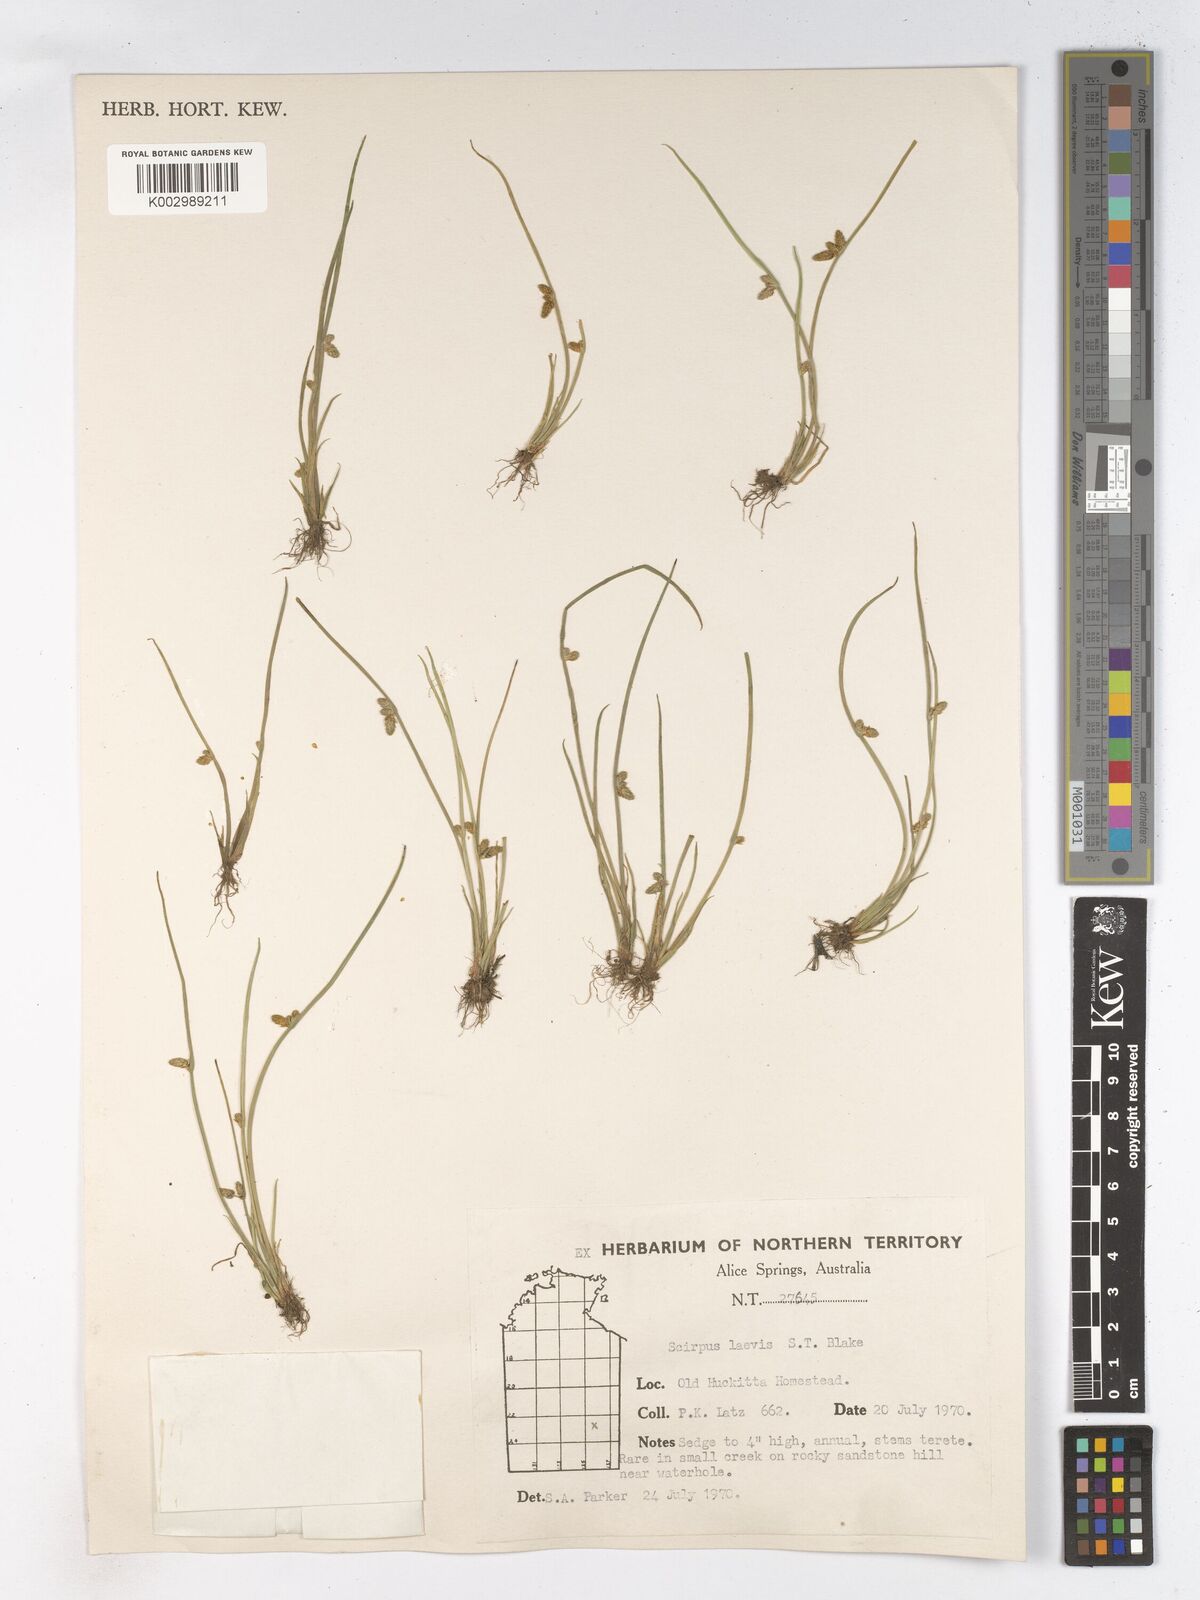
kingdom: Plantae
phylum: Tracheophyta
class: Liliopsida
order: Poales
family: Cyperaceae
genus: Schoenoplectiella
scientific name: Schoenoplectiella laevis
